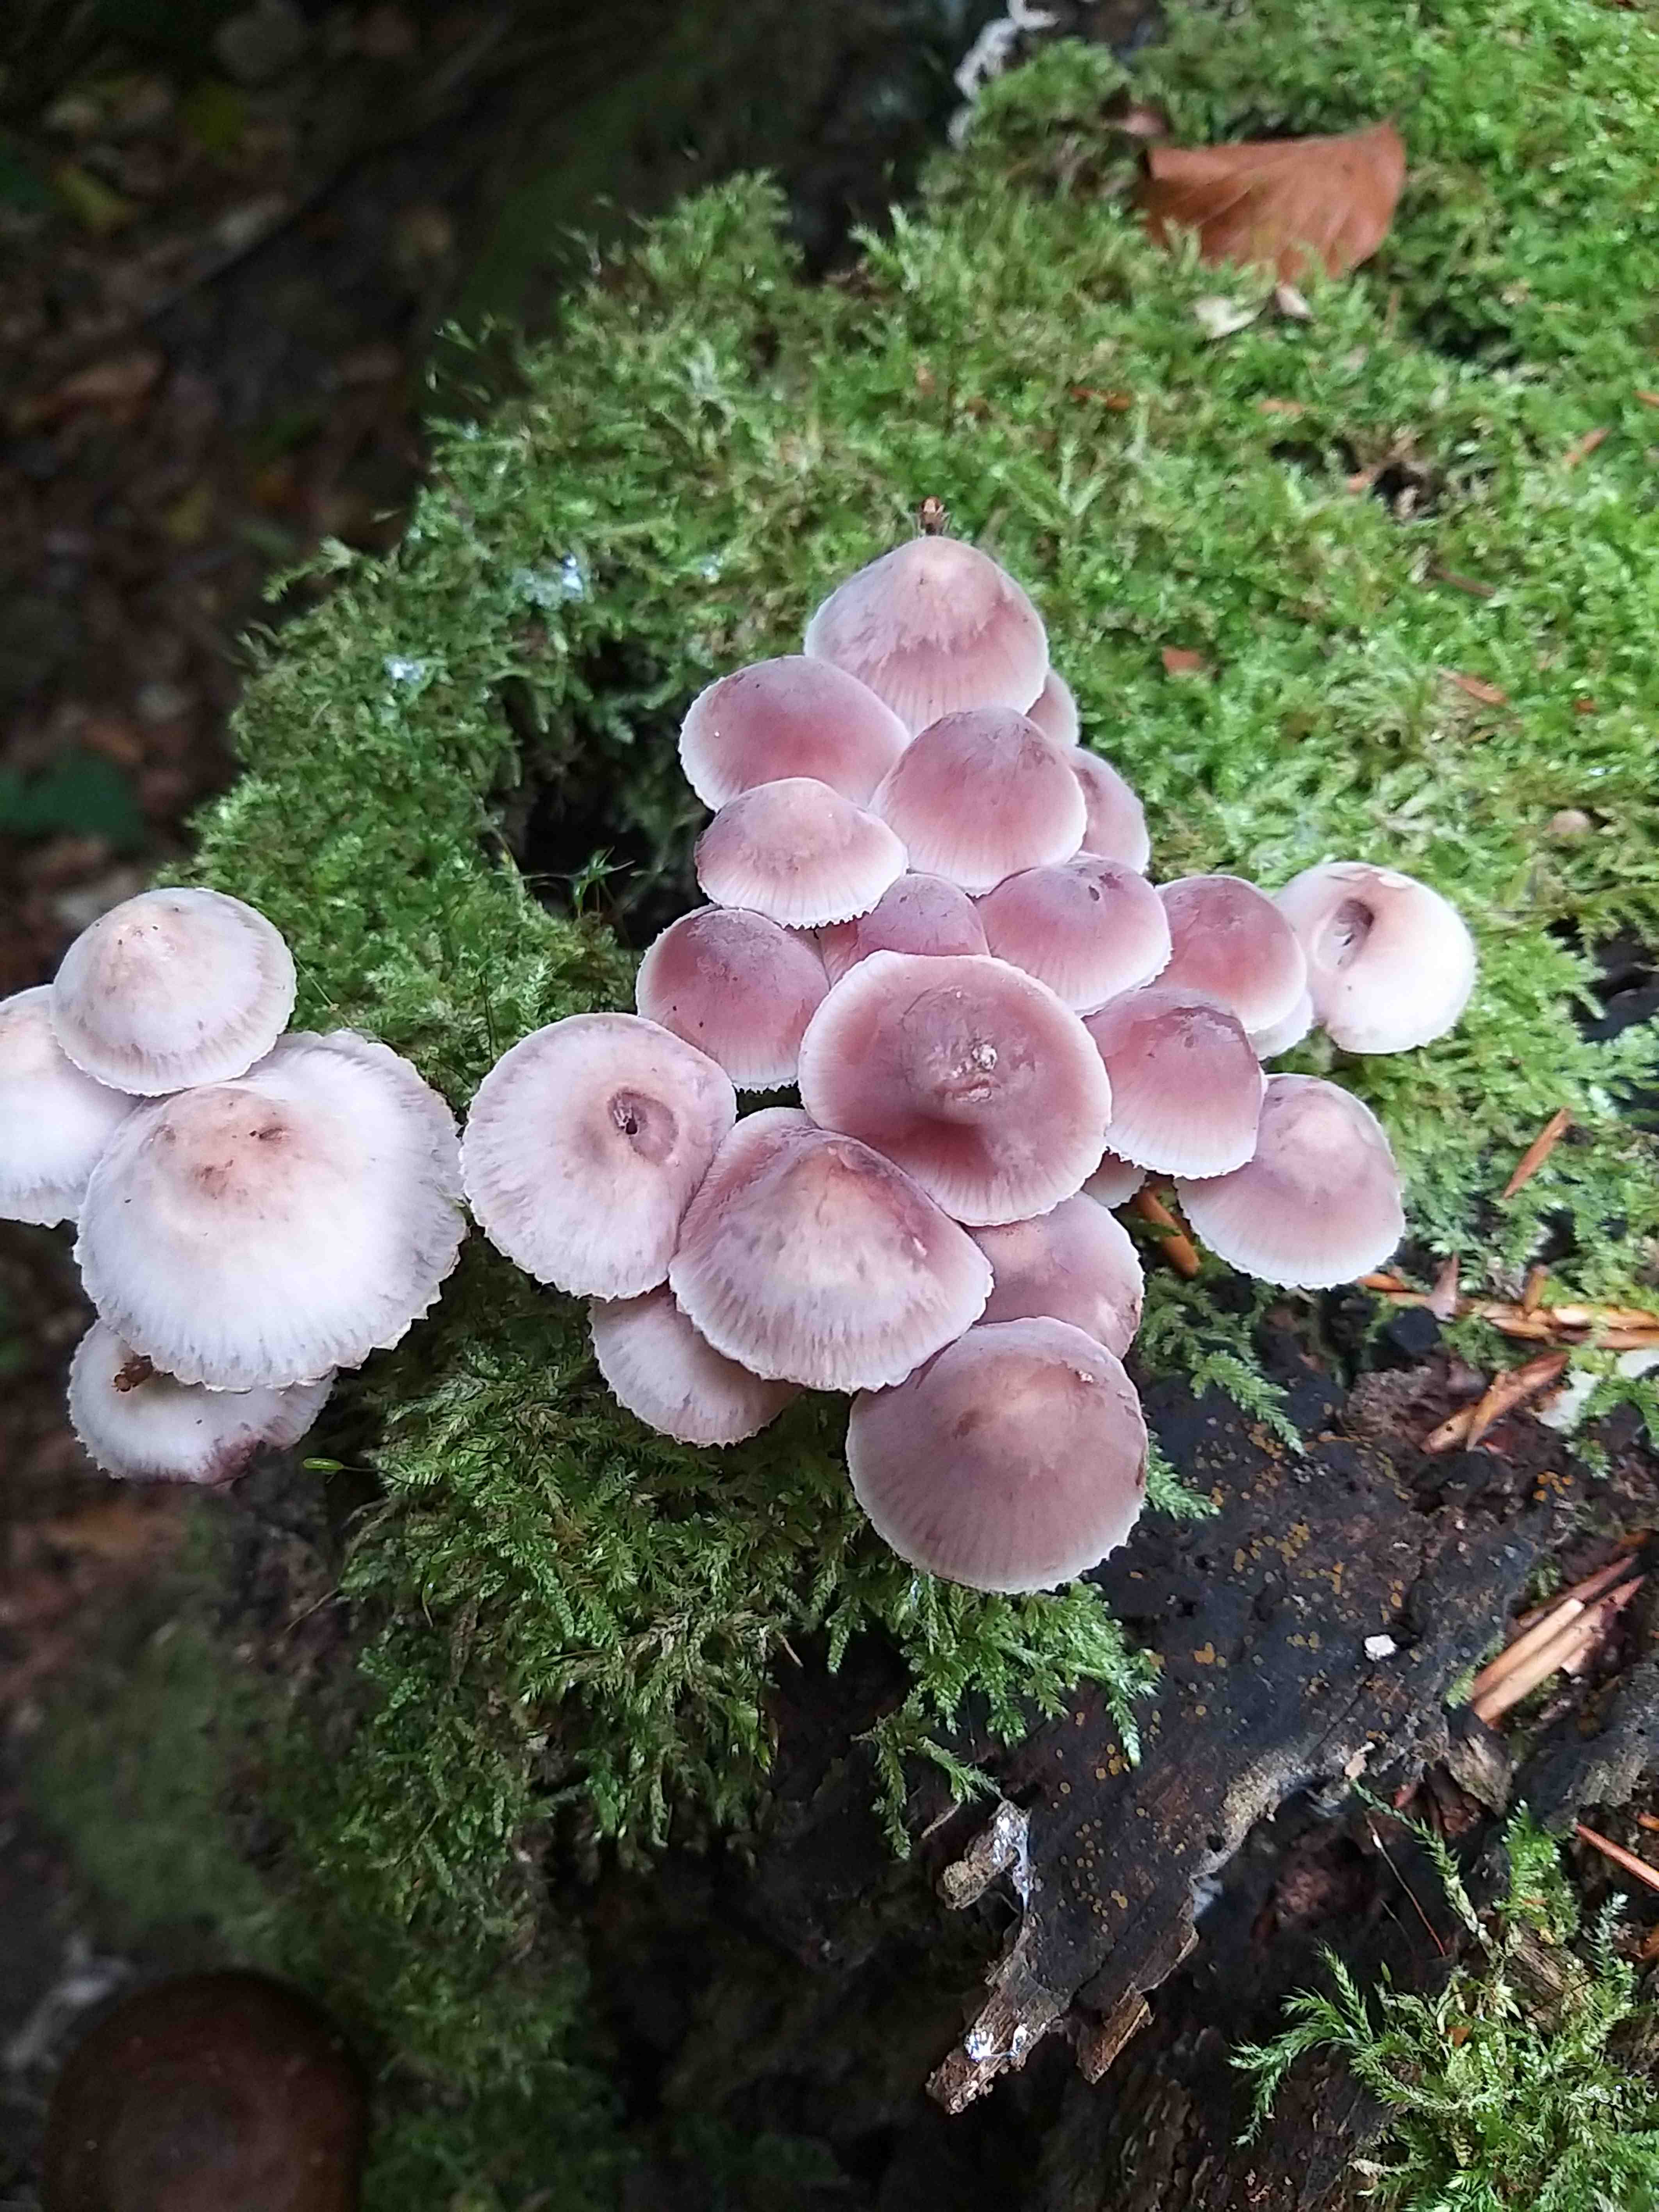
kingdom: Fungi
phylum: Basidiomycota
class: Agaricomycetes
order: Agaricales
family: Mycenaceae
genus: Mycena
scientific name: Mycena haematopus
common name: blødende huesvamp
